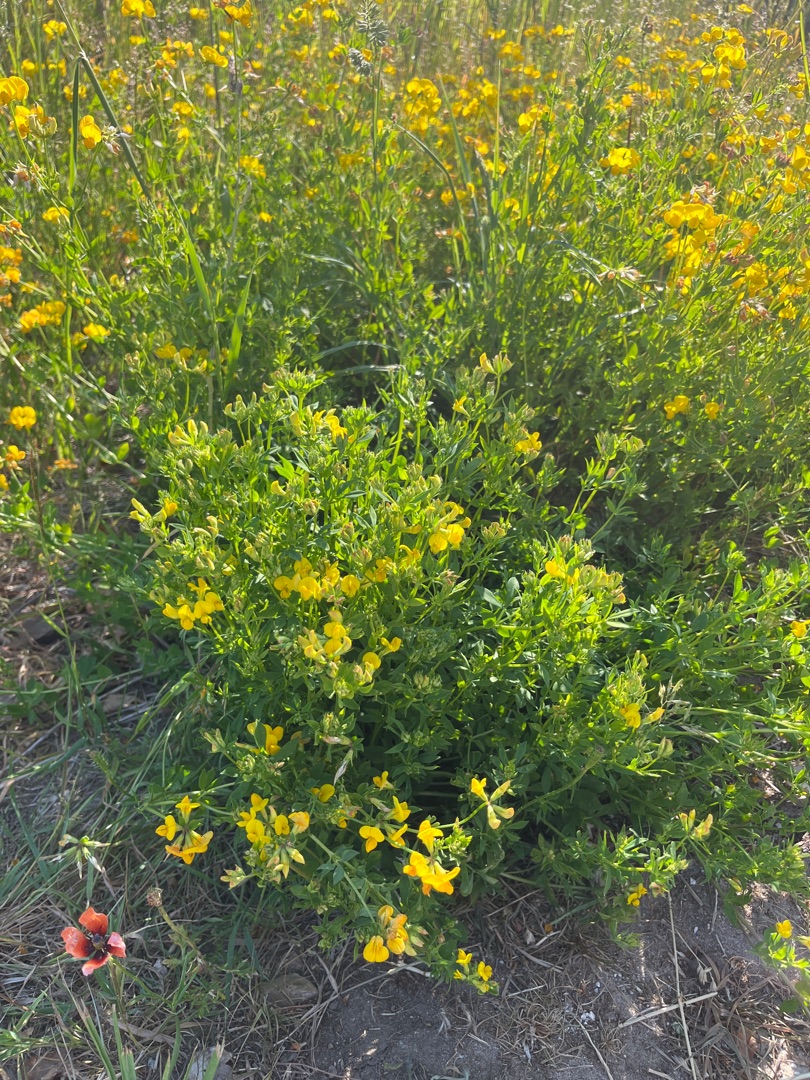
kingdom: Plantae
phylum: Tracheophyta
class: Magnoliopsida
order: Fabales
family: Fabaceae
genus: Lotus
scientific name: Lotus corniculatus
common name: Almindelig kællingetand
